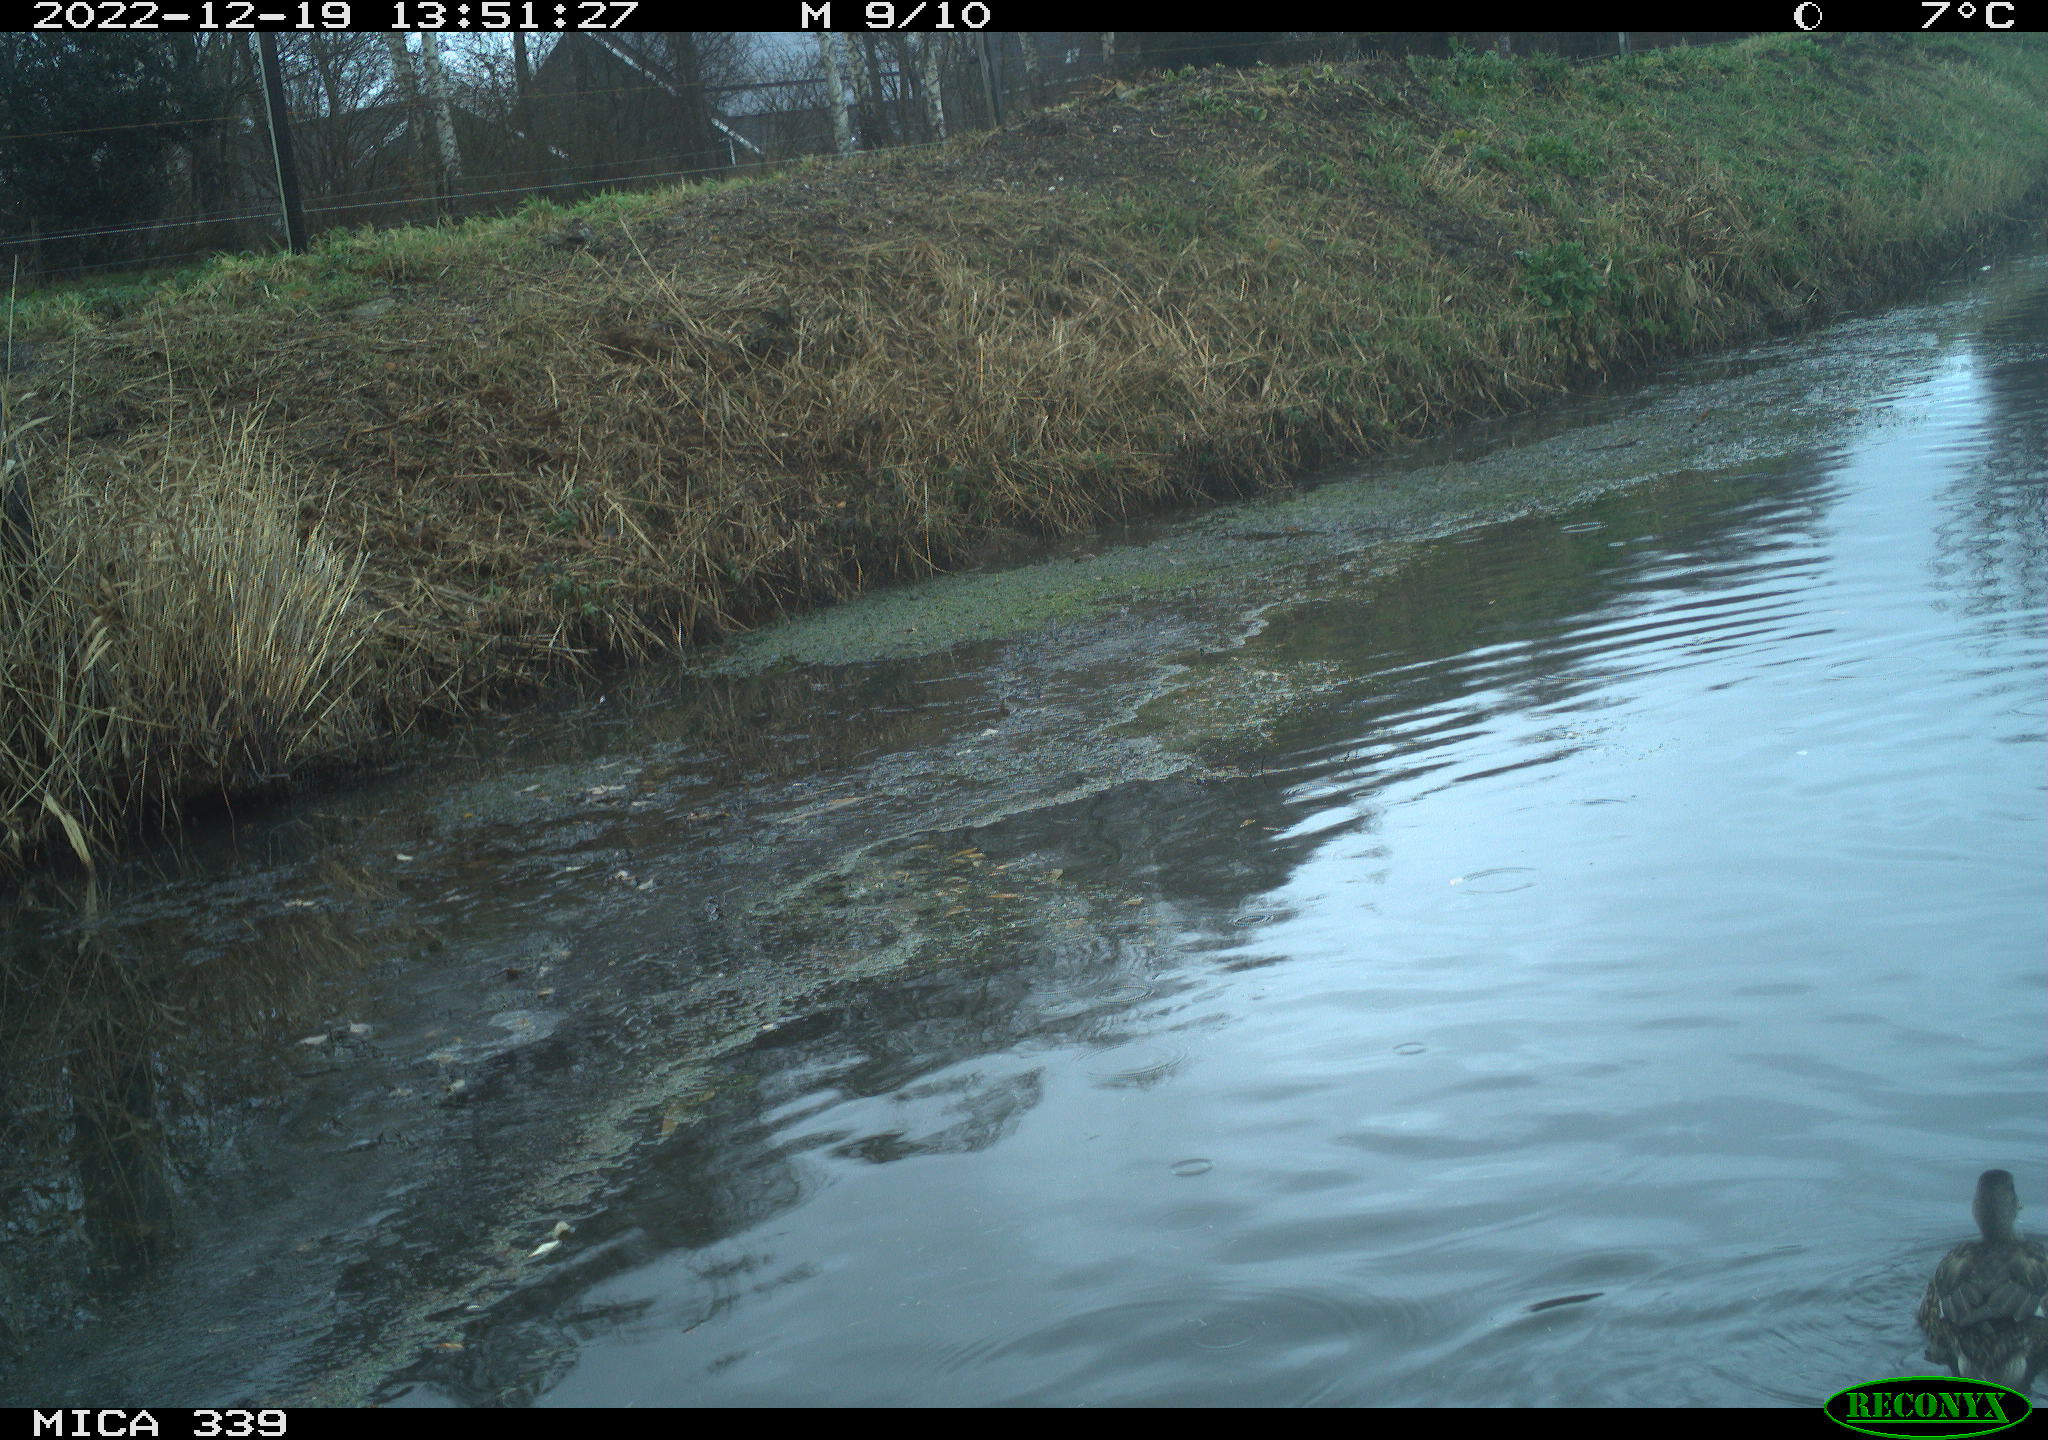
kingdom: Animalia
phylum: Chordata
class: Aves
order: Anseriformes
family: Anatidae
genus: Anas
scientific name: Anas
